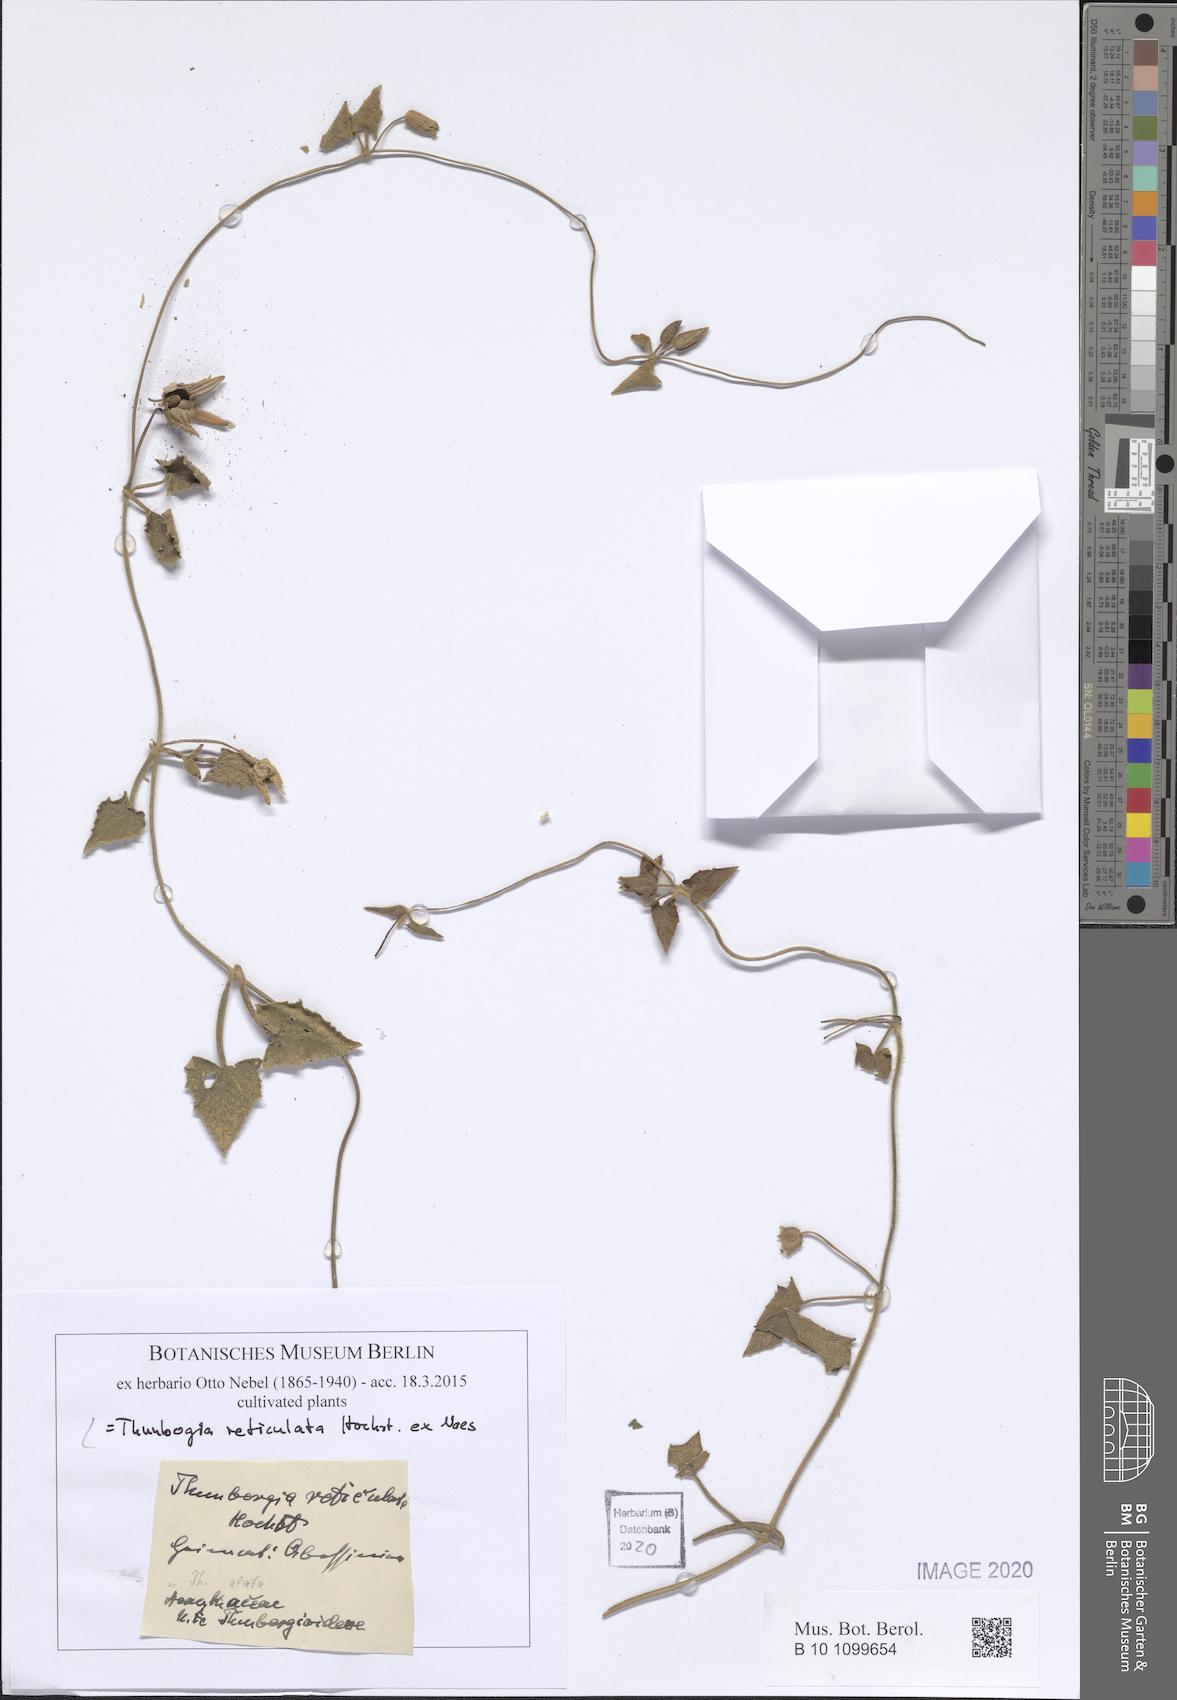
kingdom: Plantae
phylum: Tracheophyta
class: Magnoliopsida
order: Lamiales
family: Acanthaceae
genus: Thunbergia
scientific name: Thunbergia reticulata
